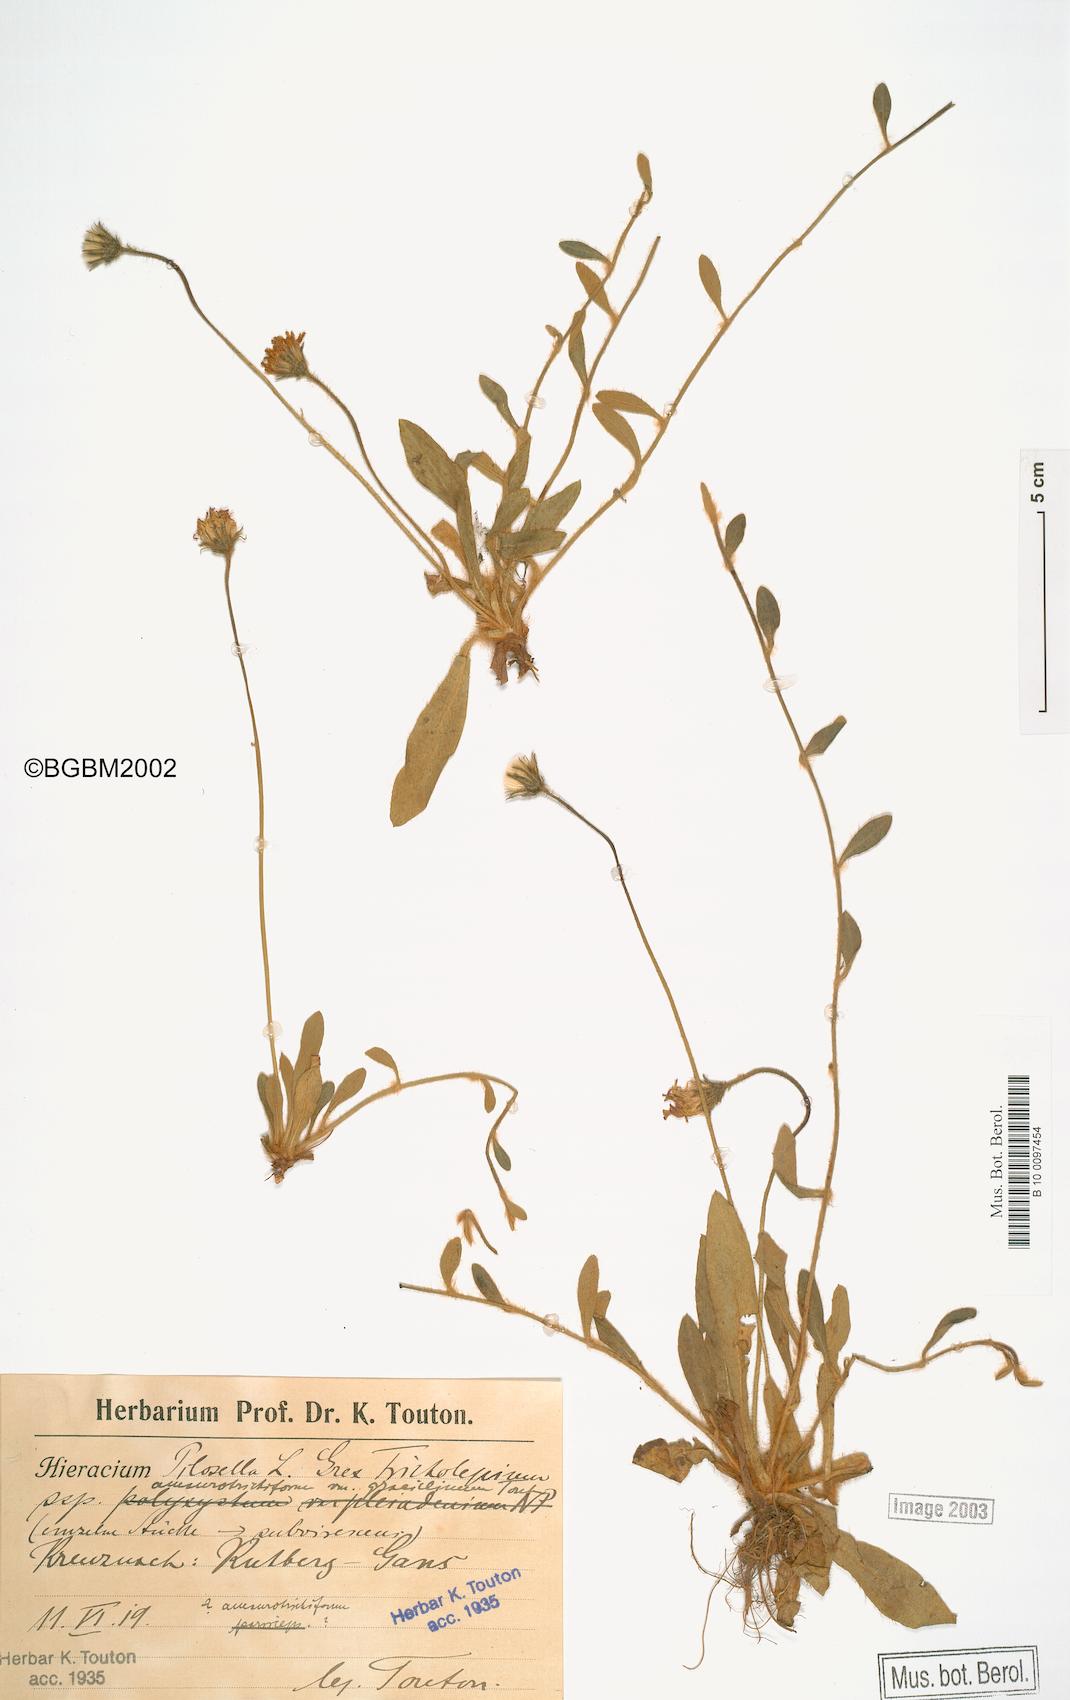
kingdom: Plantae
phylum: Tracheophyta
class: Magnoliopsida
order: Asterales
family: Asteraceae
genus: Pilosella
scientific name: Pilosella officinarum
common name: Mouse-ear hawkweed
